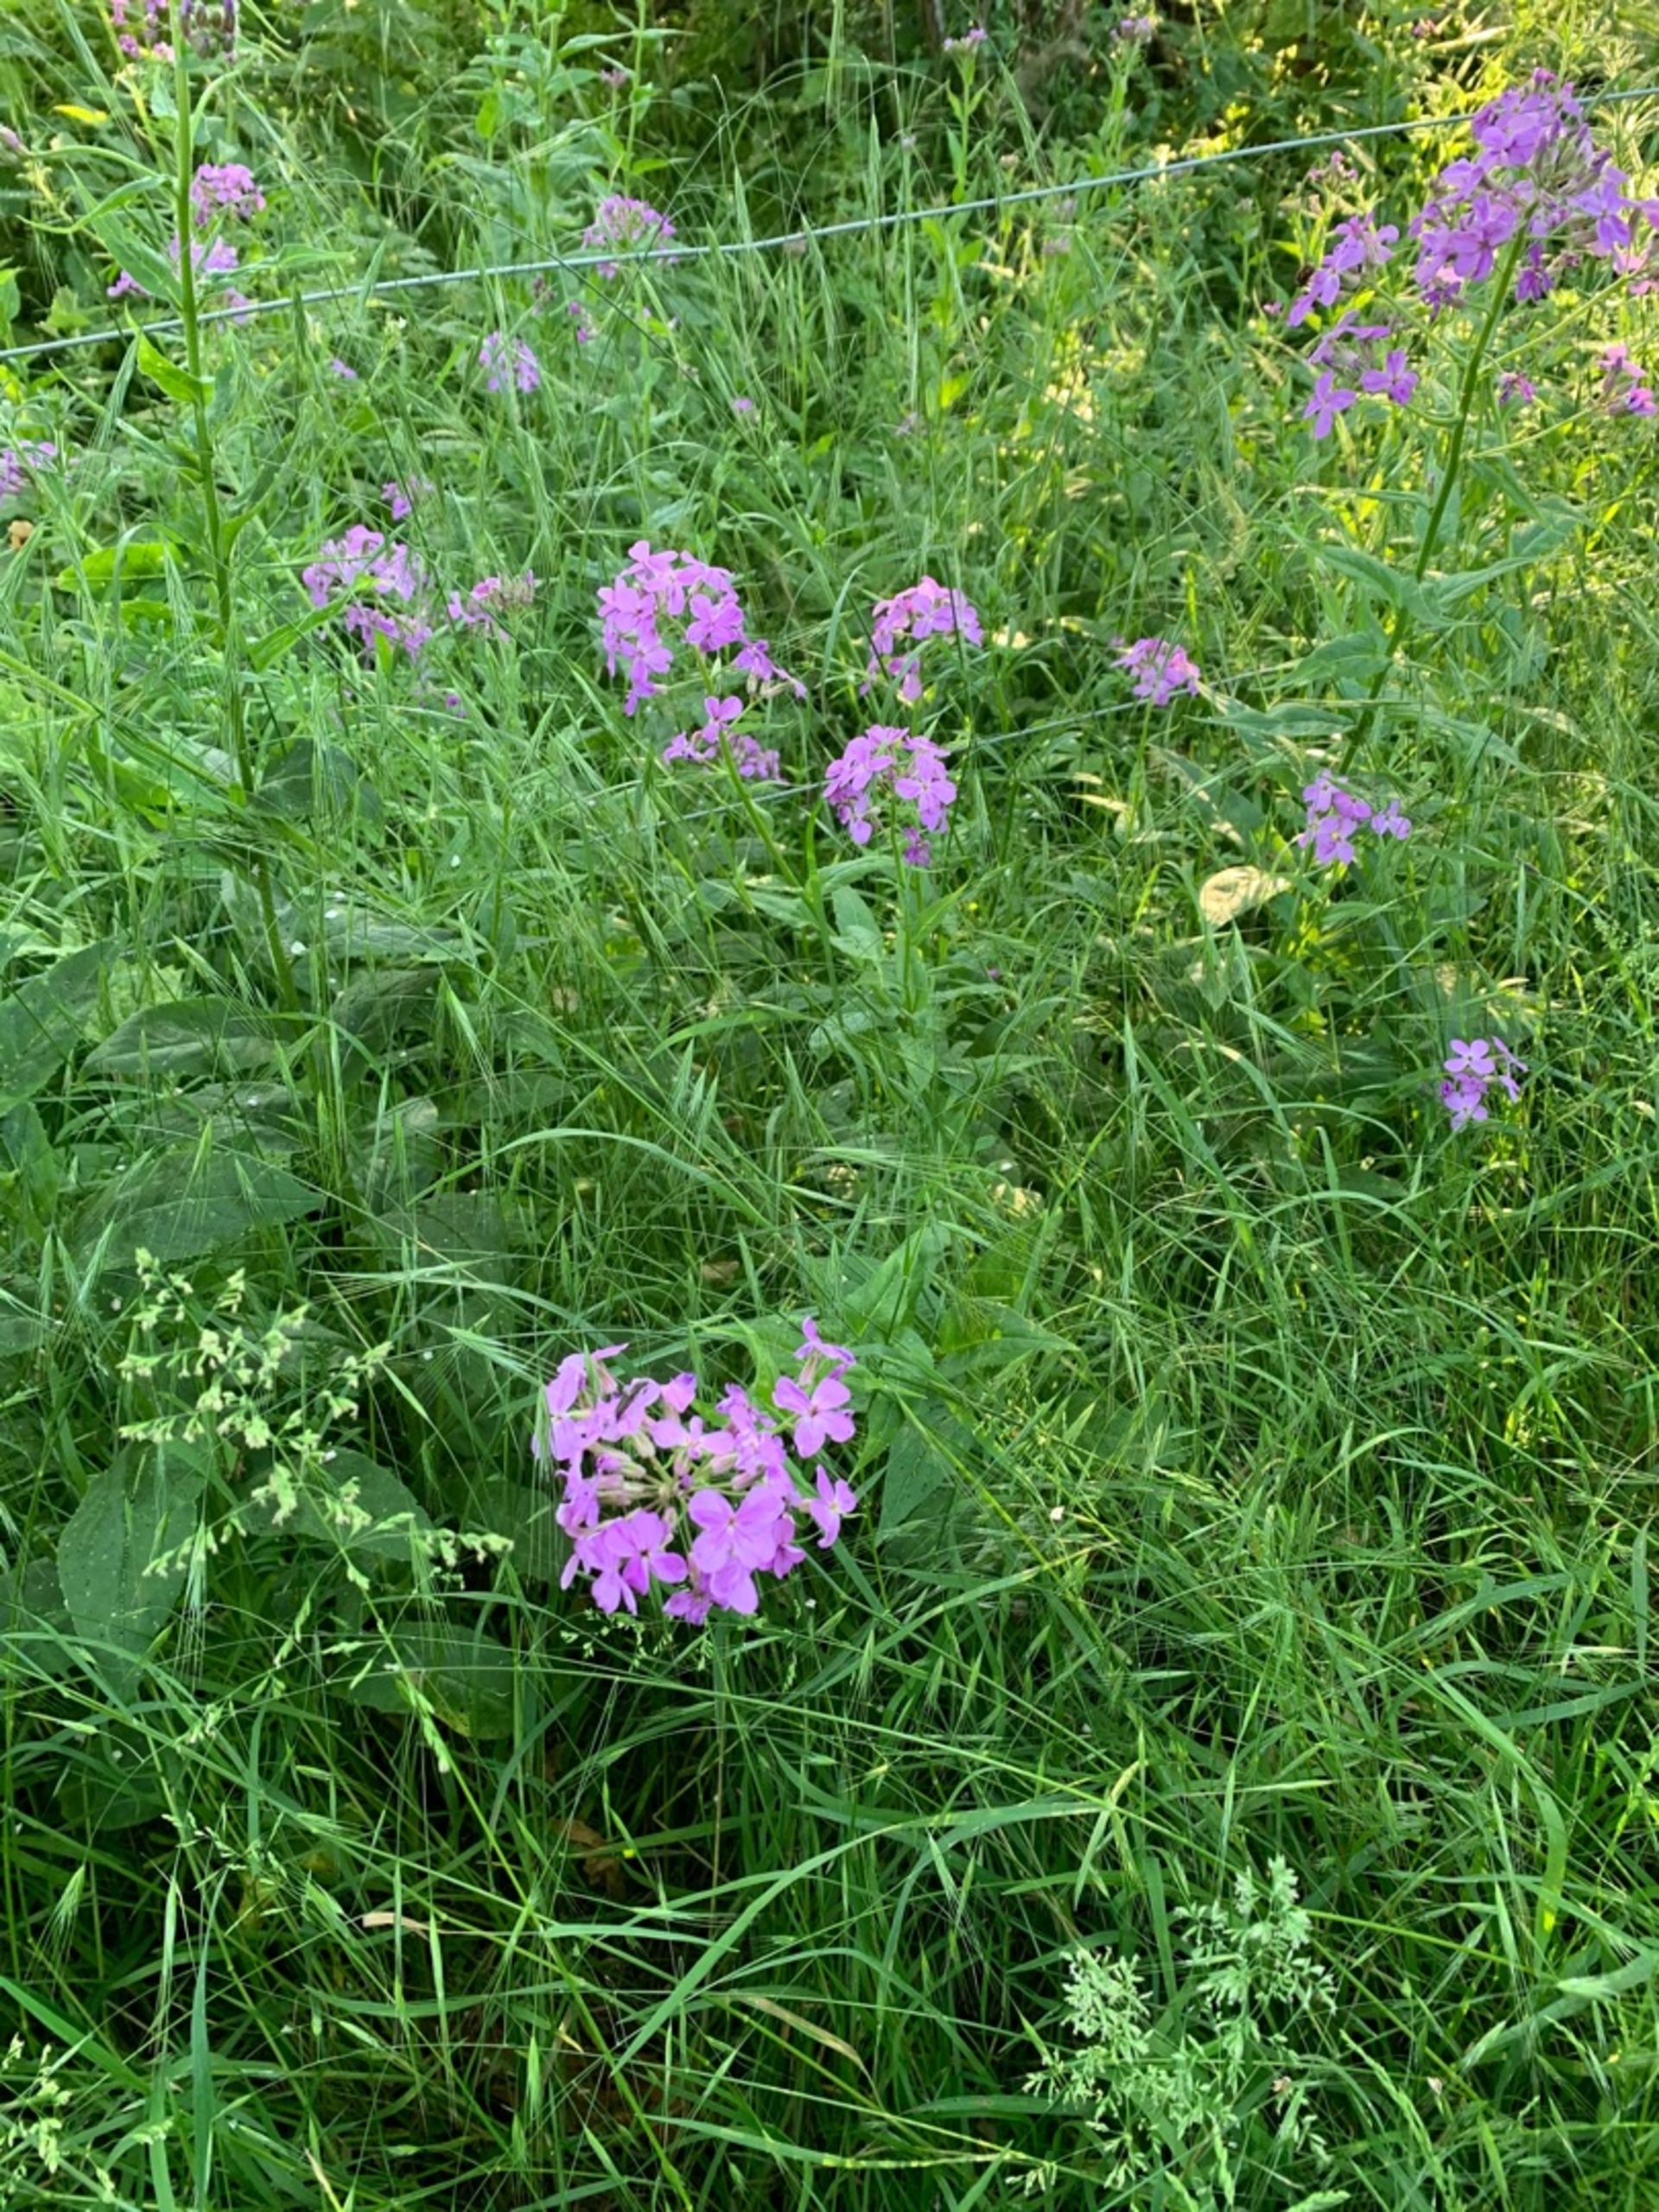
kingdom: Plantae
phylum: Tracheophyta
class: Magnoliopsida
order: Brassicales
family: Brassicaceae
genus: Hesperis
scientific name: Hesperis matronalis
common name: Aftenstjerne
